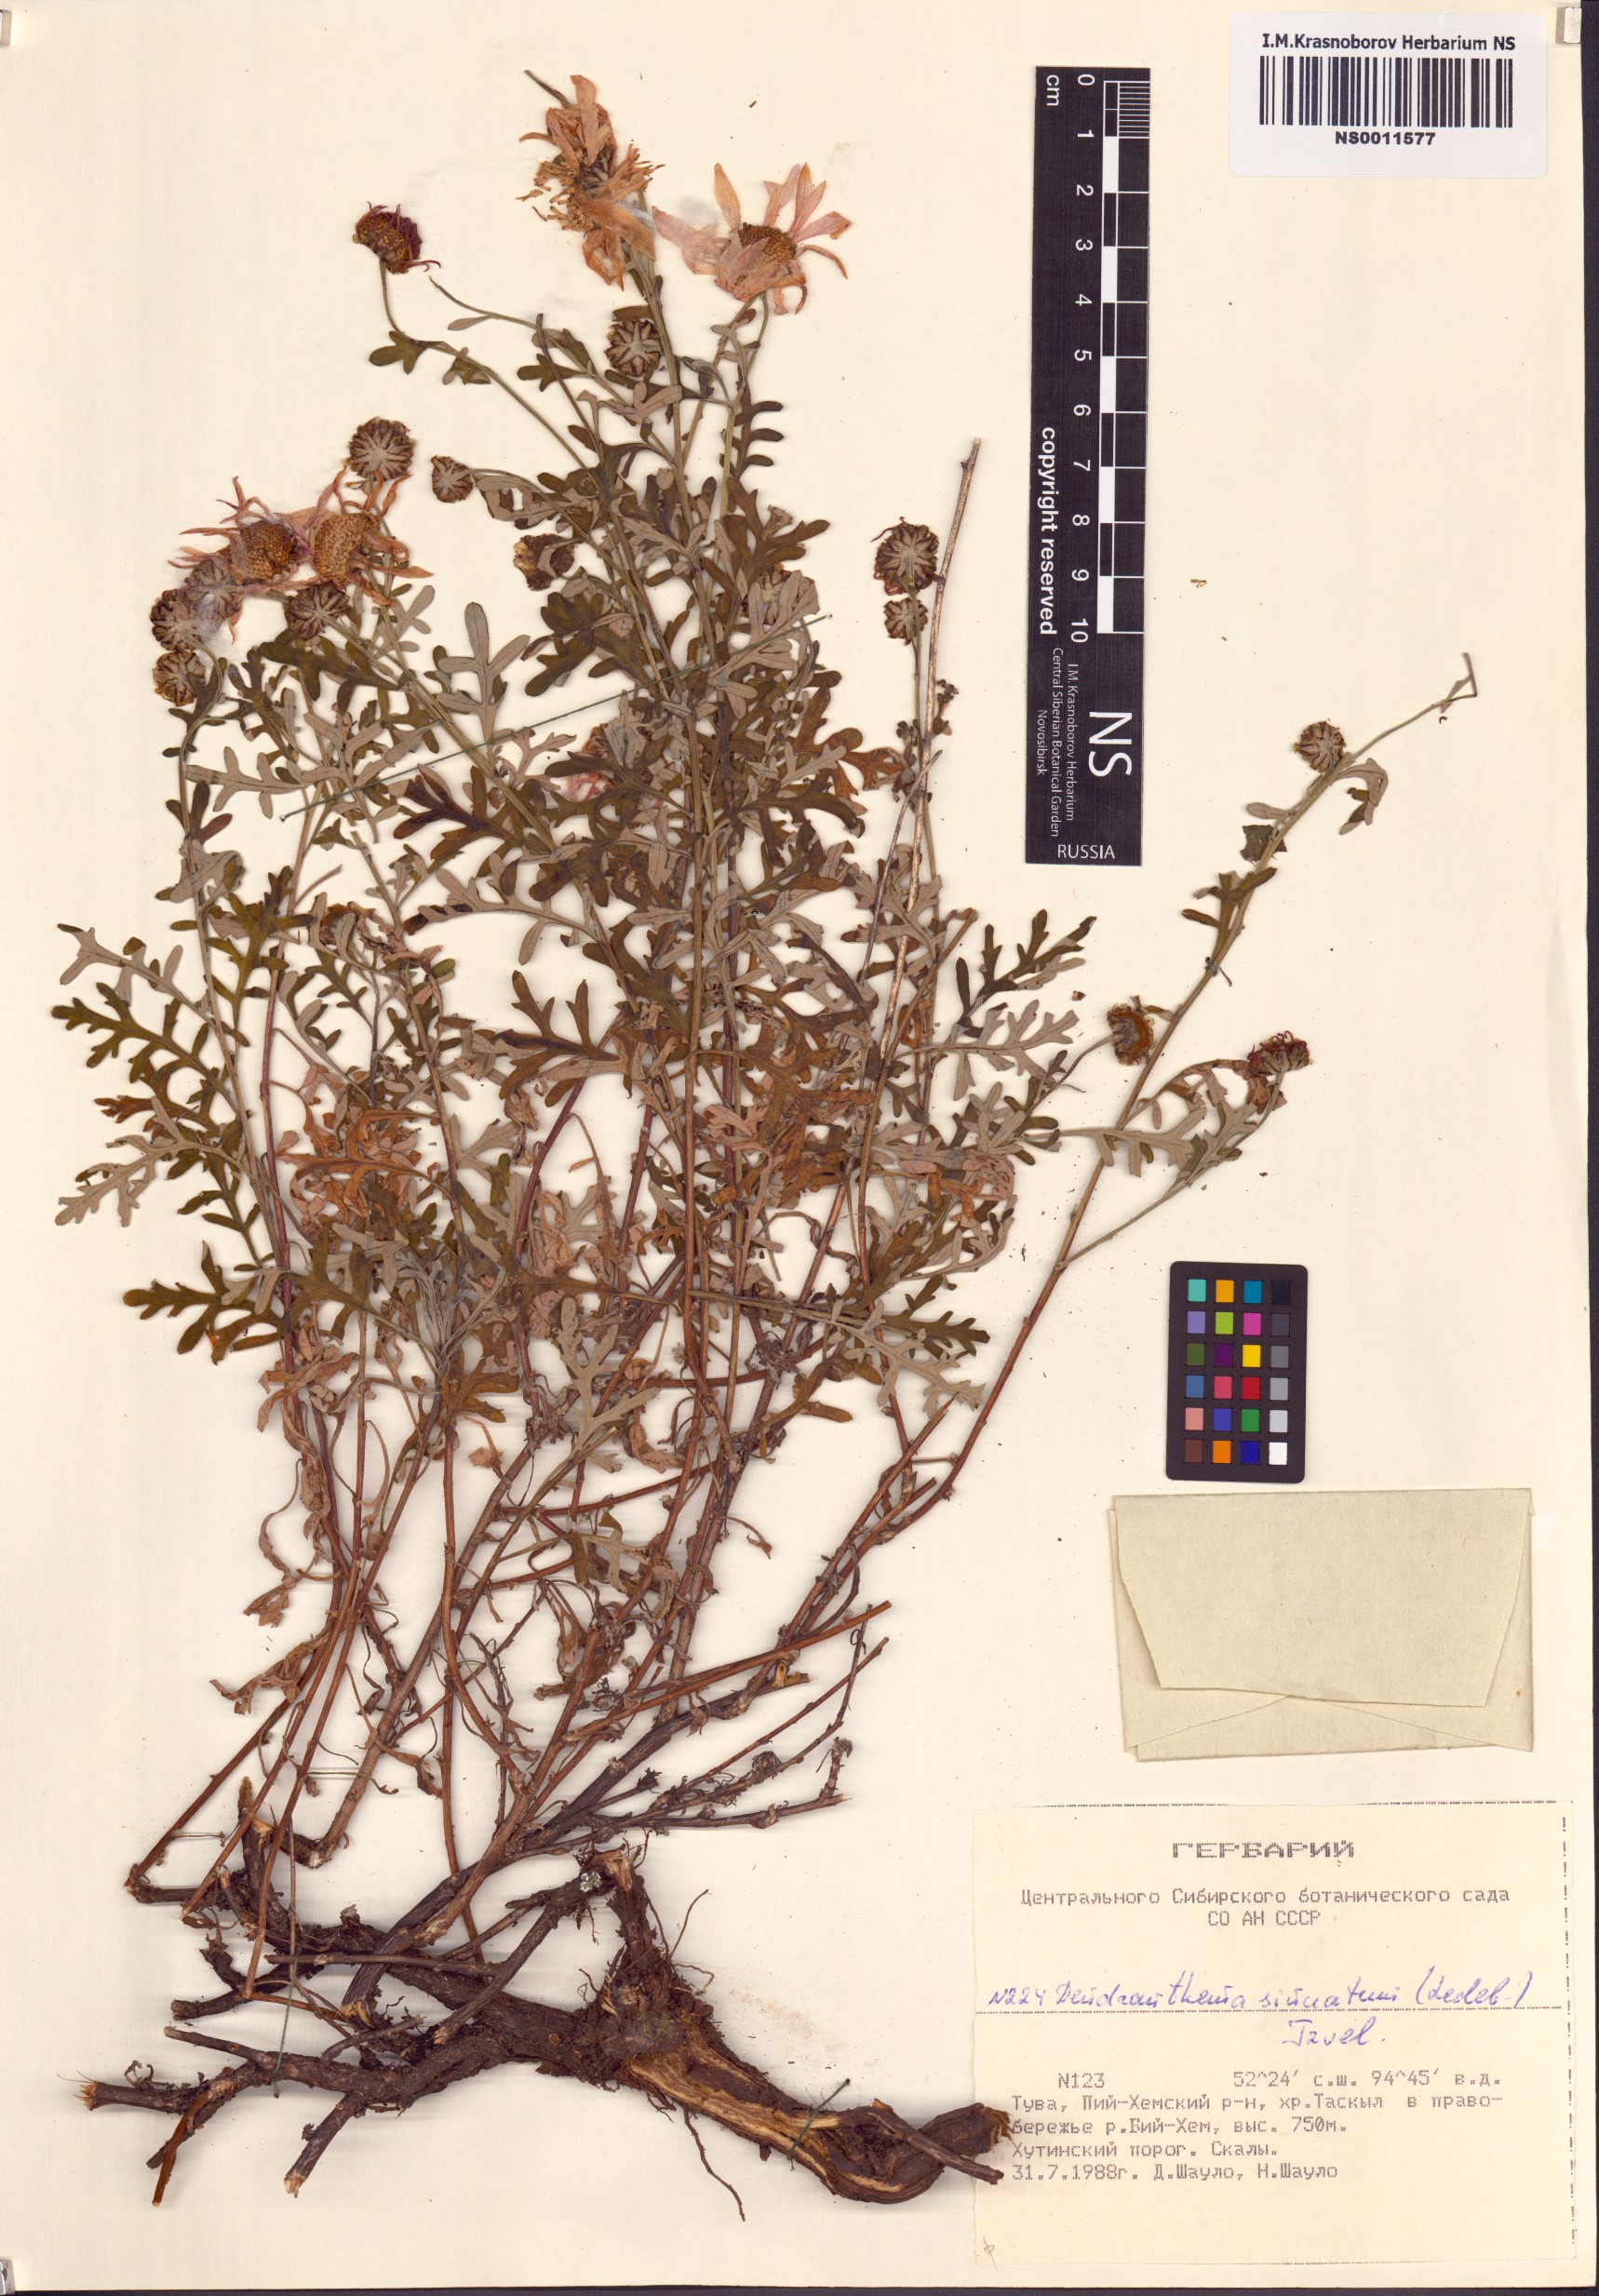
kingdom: Plantae
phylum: Tracheophyta
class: Magnoliopsida
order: Asterales
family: Asteraceae
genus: Chrysanthemum
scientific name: Chrysanthemum sinuatum
